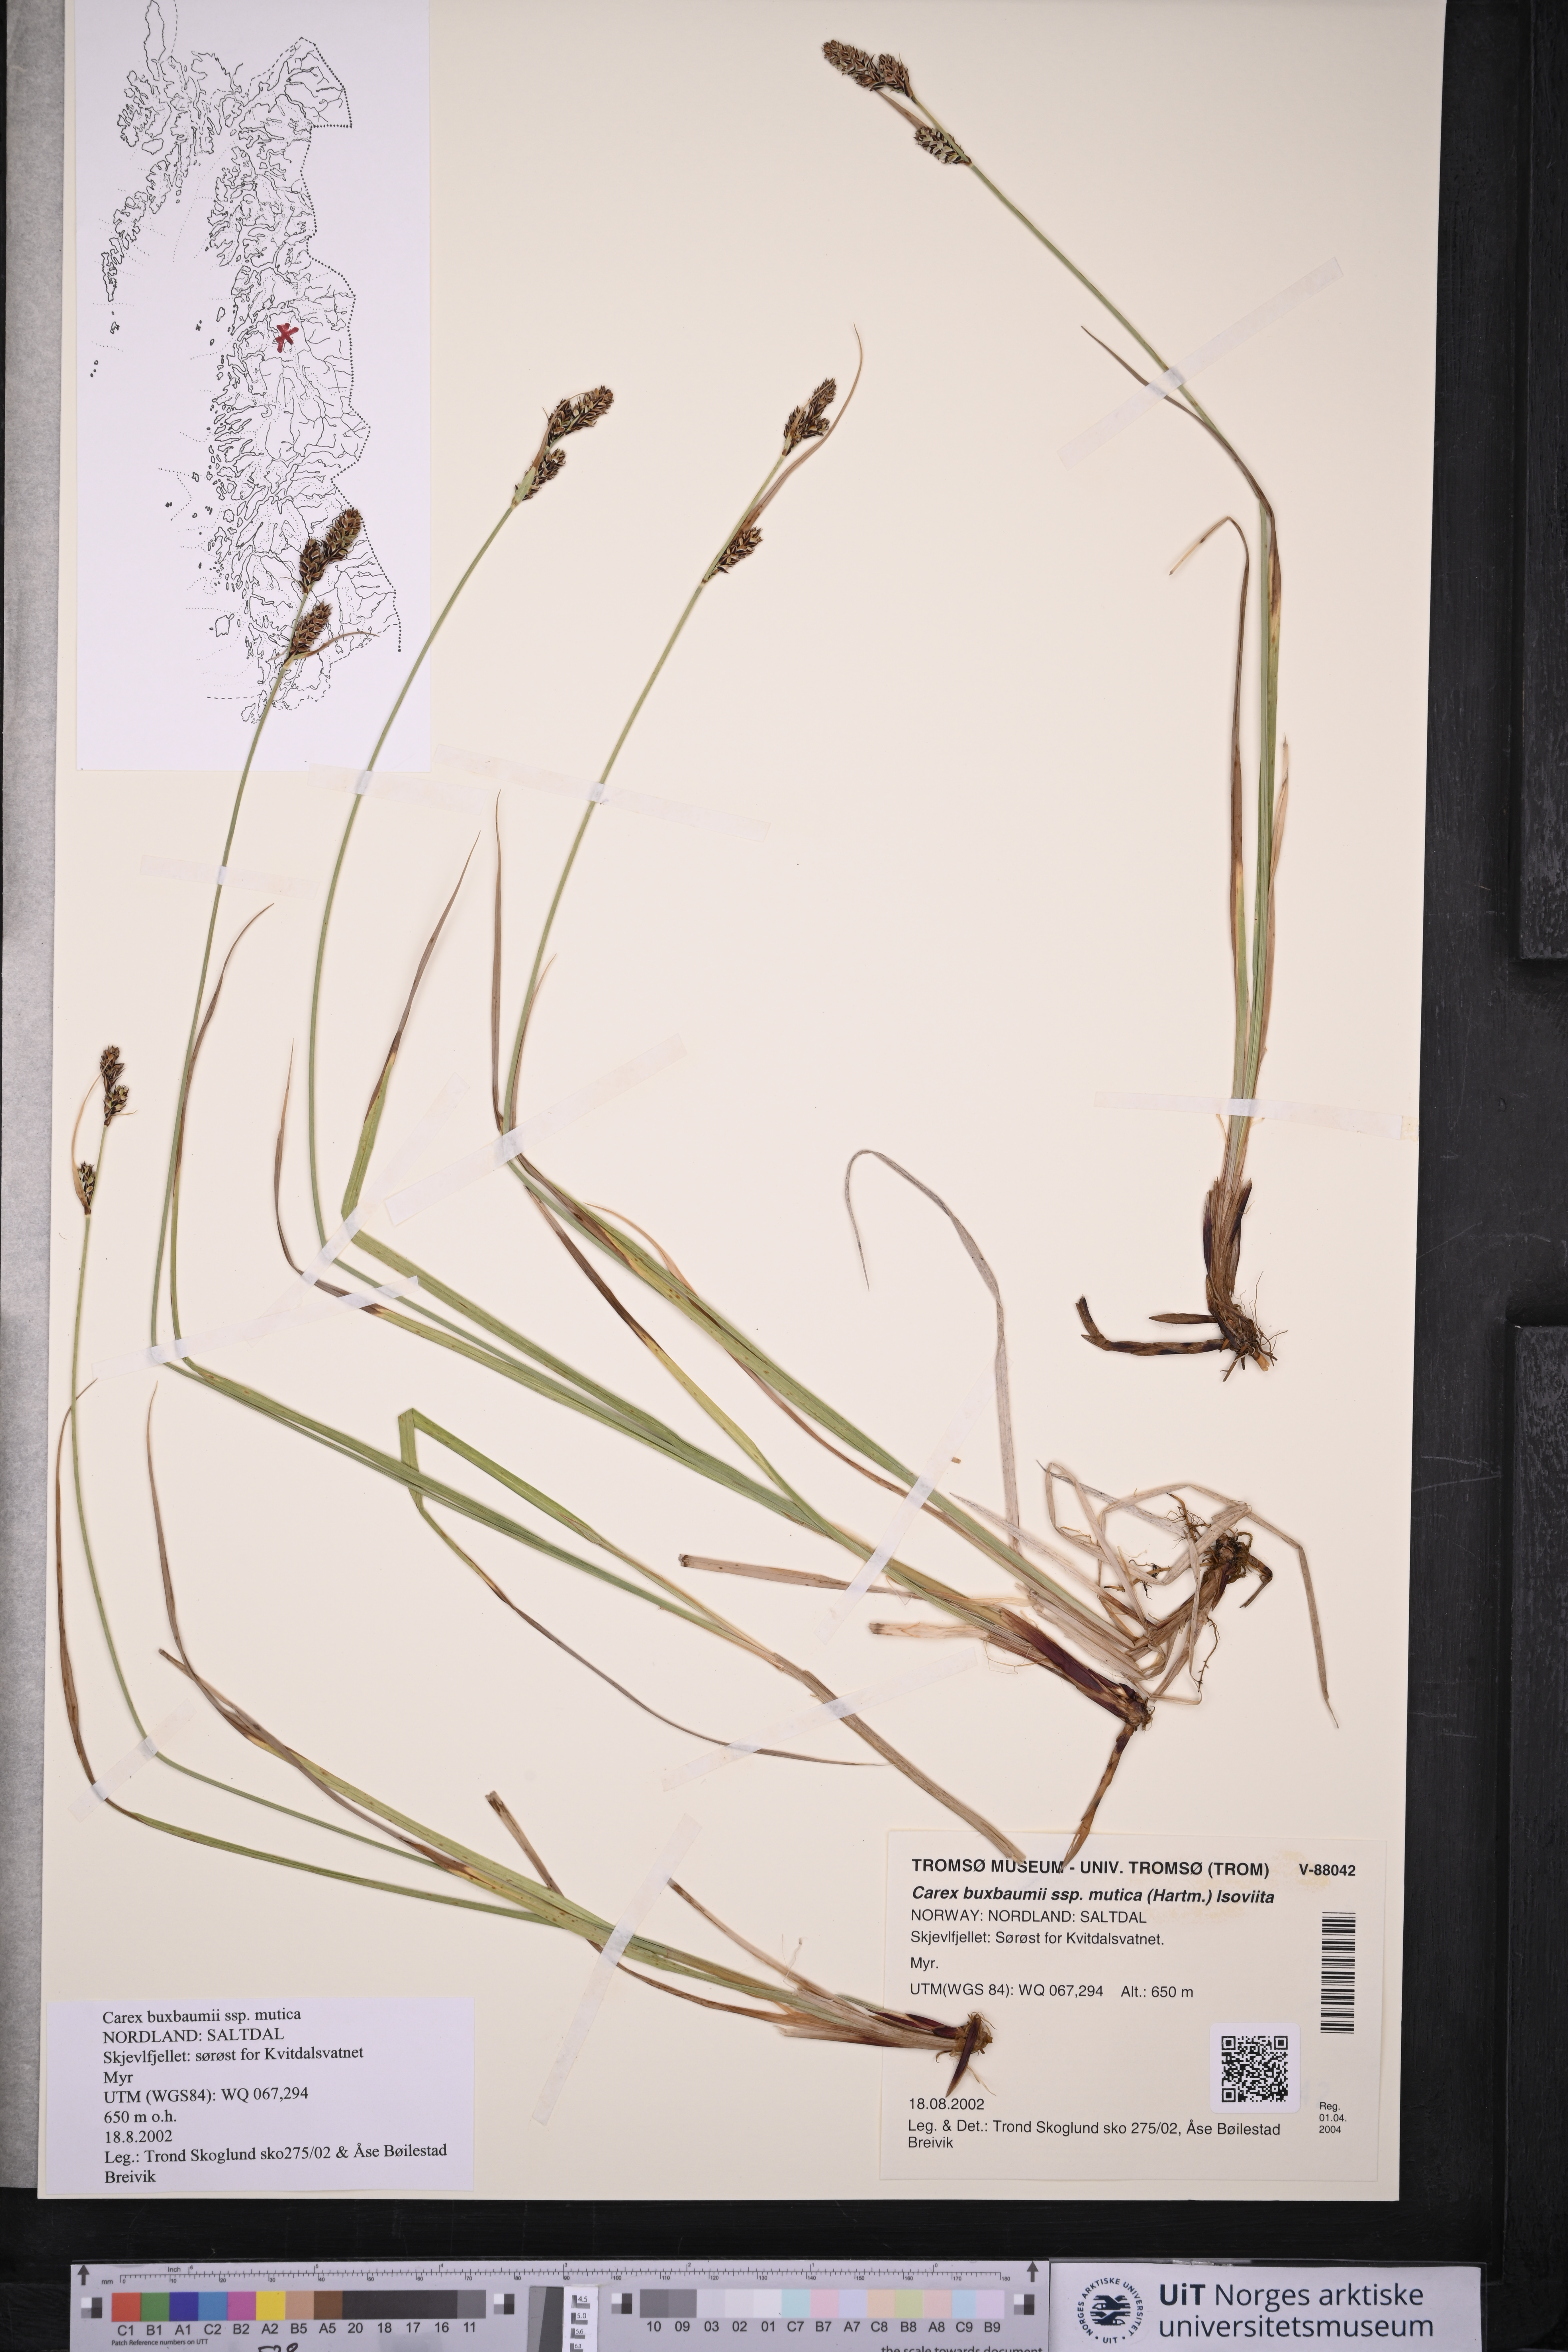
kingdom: Plantae
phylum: Tracheophyta
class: Liliopsida
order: Poales
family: Cyperaceae
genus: Carex
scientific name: Carex adelostoma
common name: Circumpolar sedge
